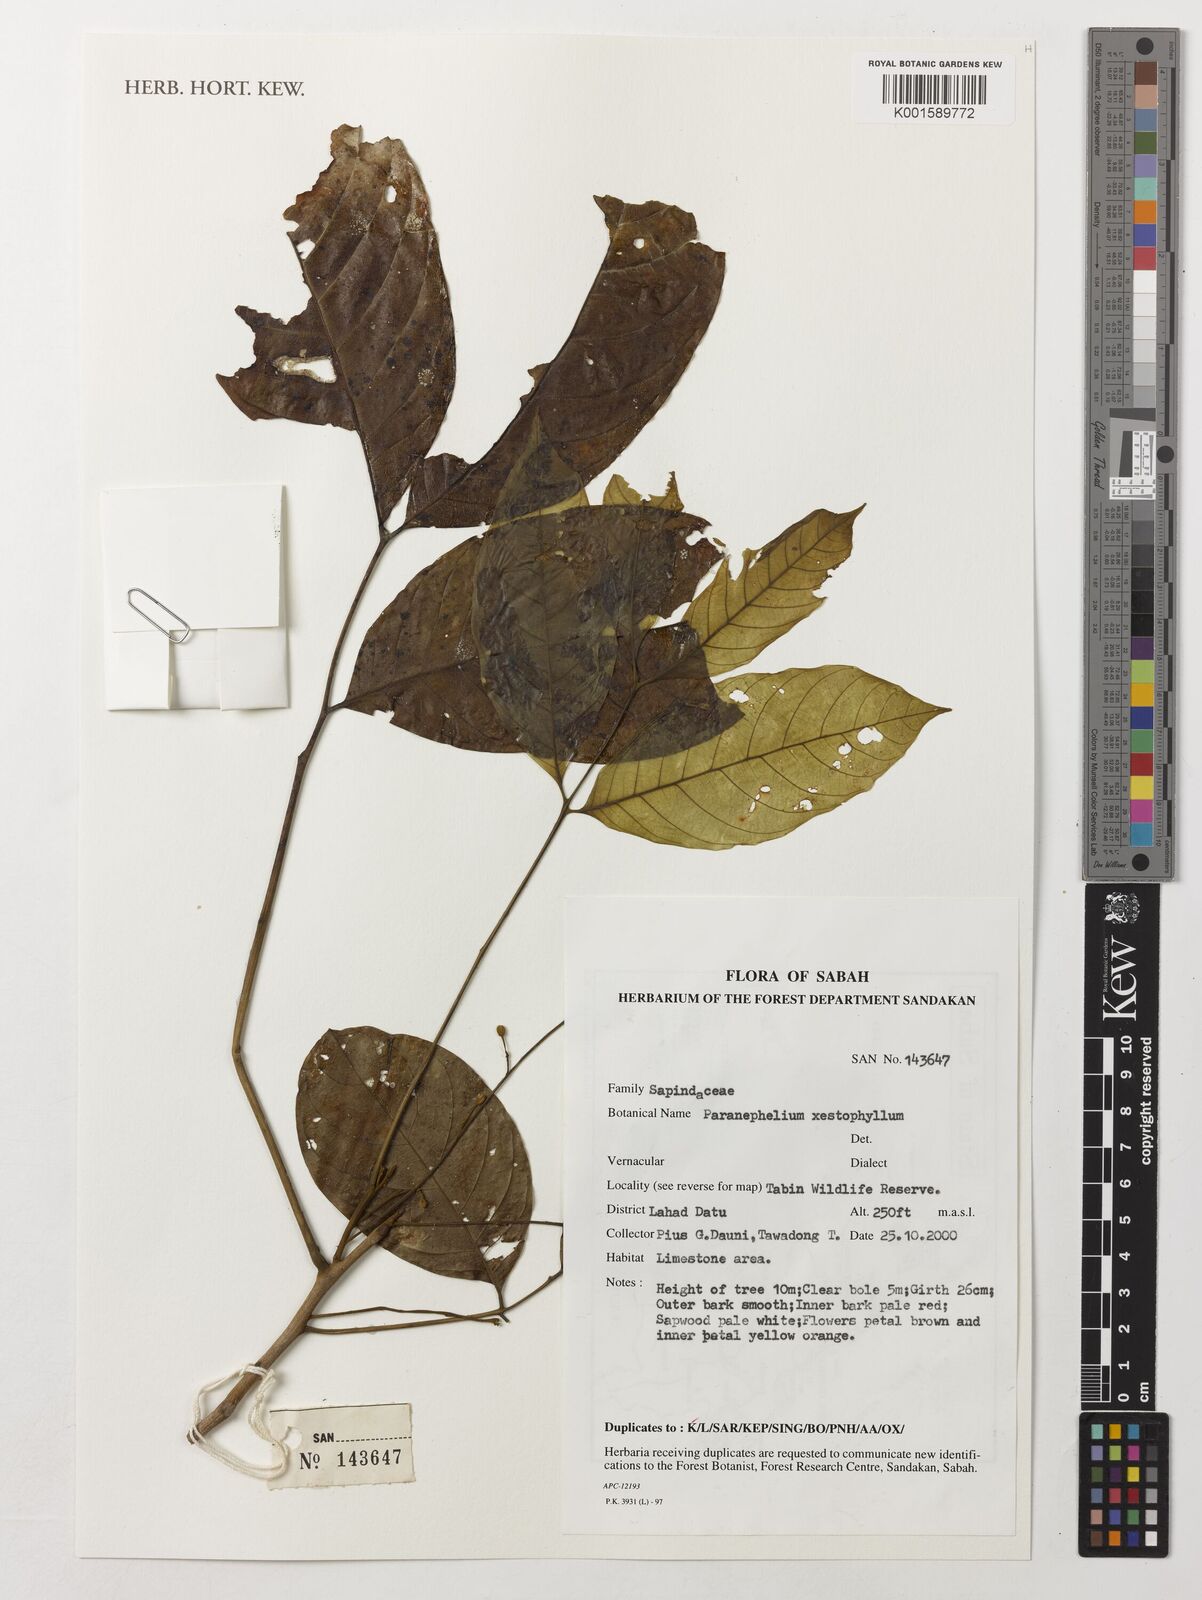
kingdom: Plantae
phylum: Tracheophyta
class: Magnoliopsida
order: Sapindales
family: Sapindaceae
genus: Paranephelium
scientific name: Paranephelium xestophyllum
